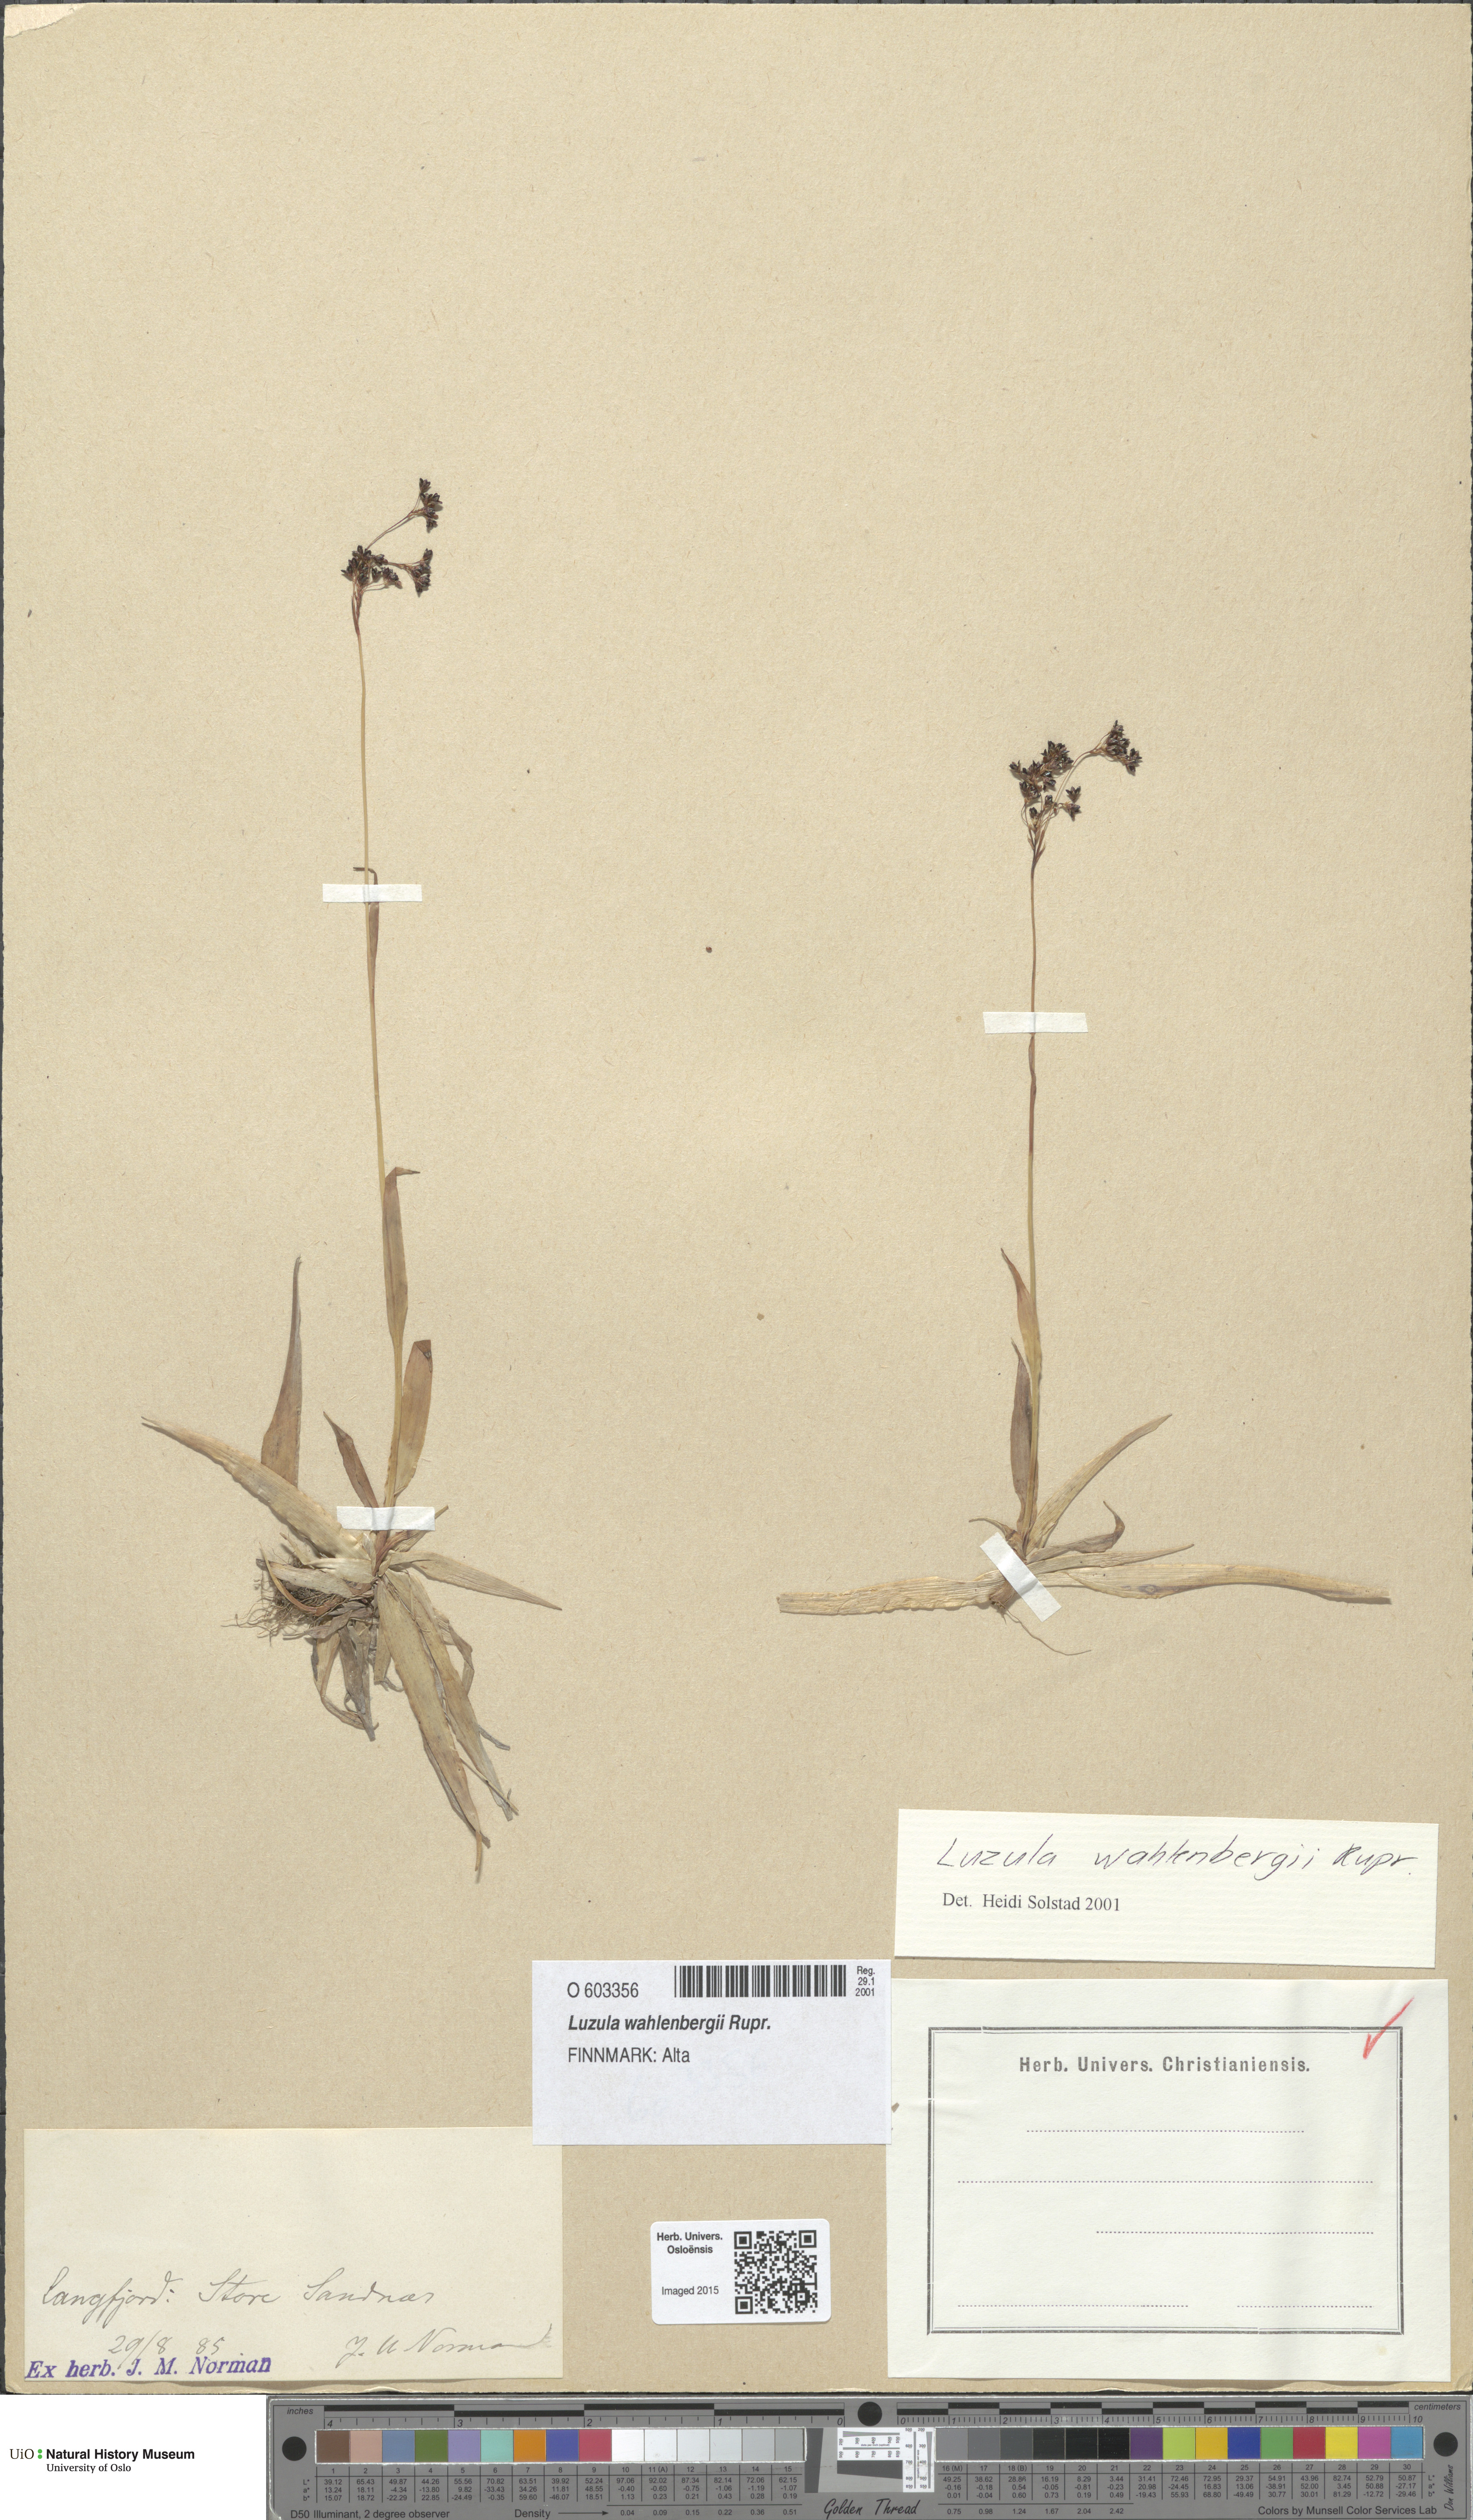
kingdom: Plantae
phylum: Tracheophyta
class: Liliopsida
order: Poales
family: Juncaceae
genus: Luzula
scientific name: Luzula wahlenbergii
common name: Wahlenberg's wood-rush
